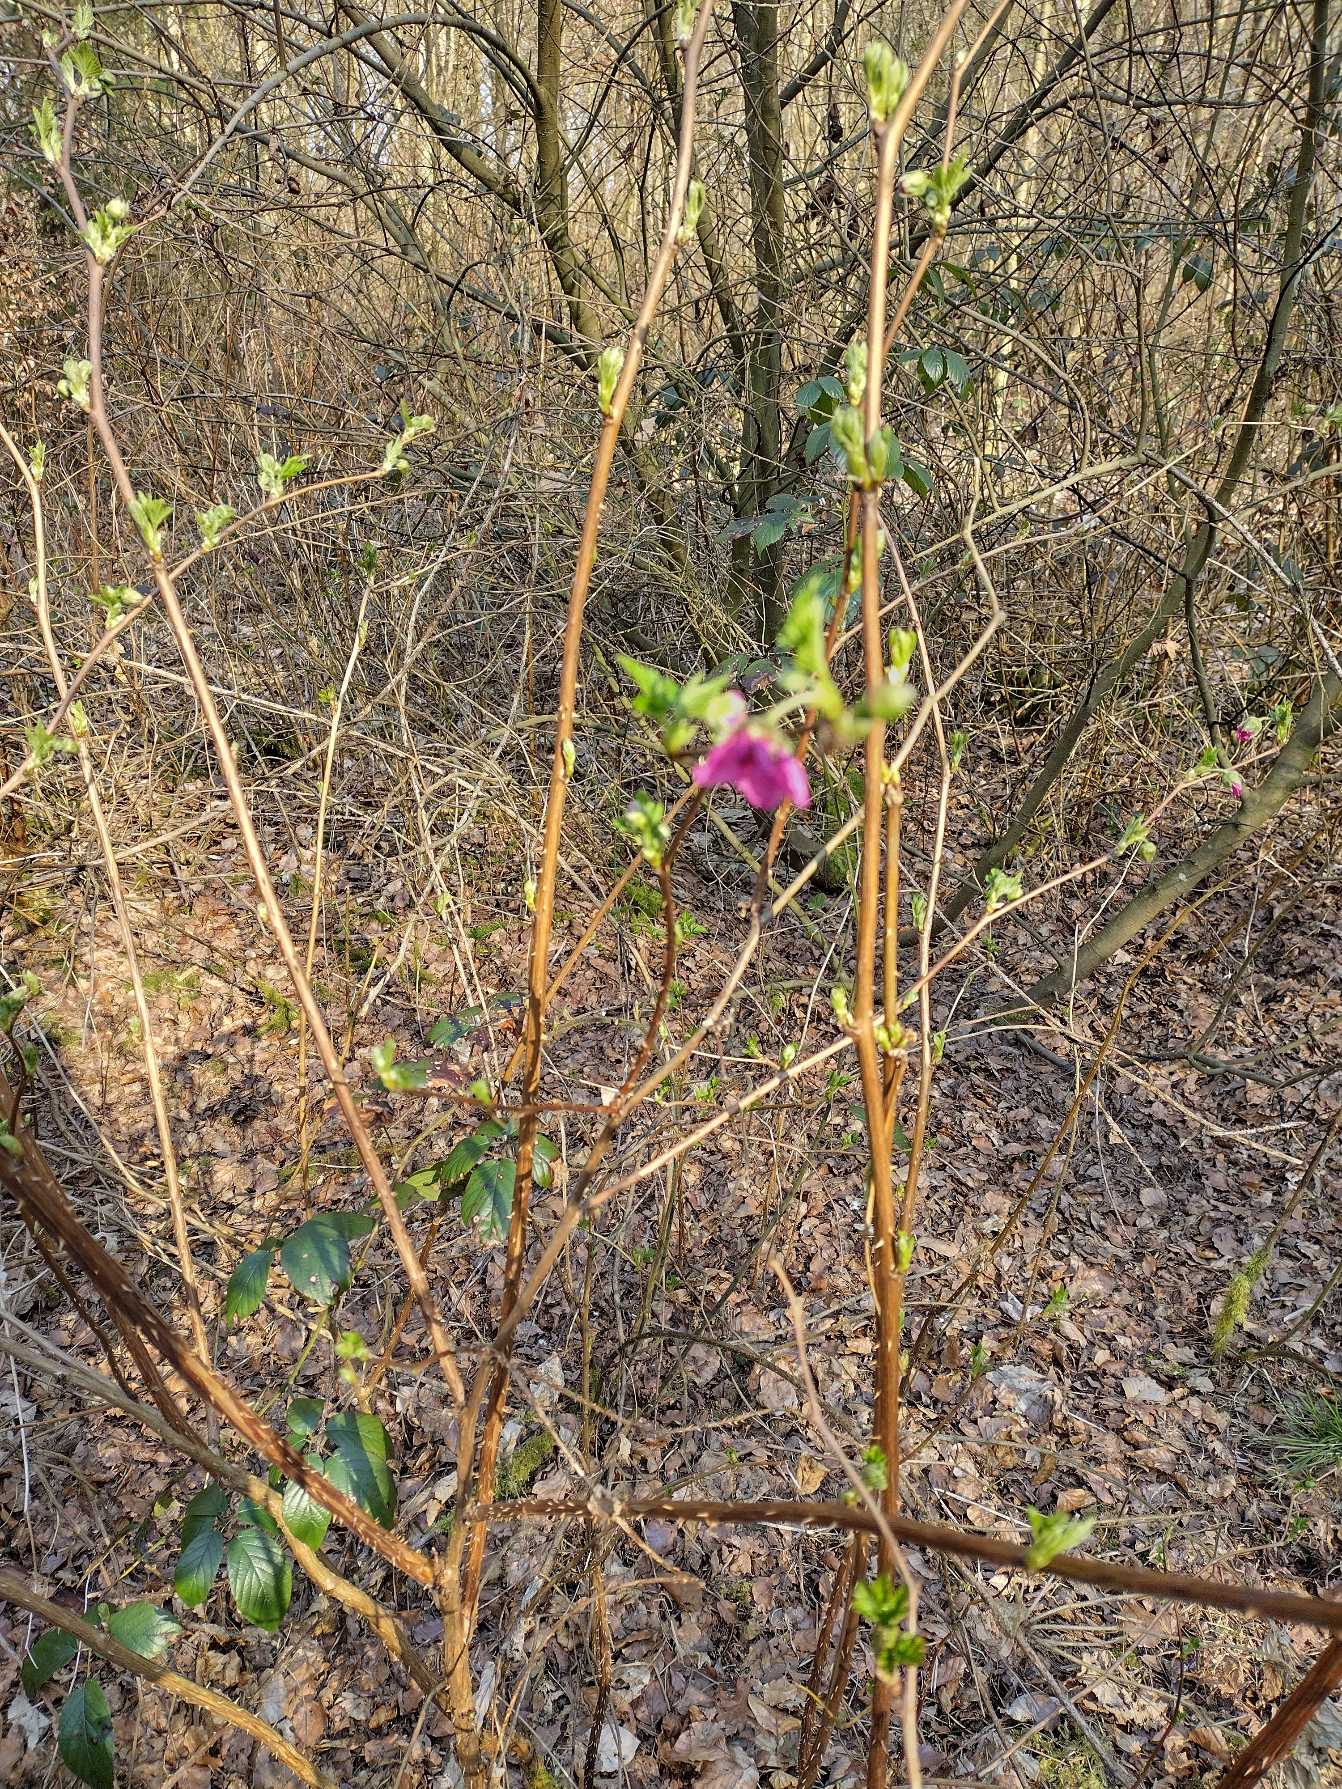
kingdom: Plantae
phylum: Tracheophyta
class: Magnoliopsida
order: Rosales
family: Rosaceae
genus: Rubus
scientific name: Rubus spectabilis
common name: Laksebær
